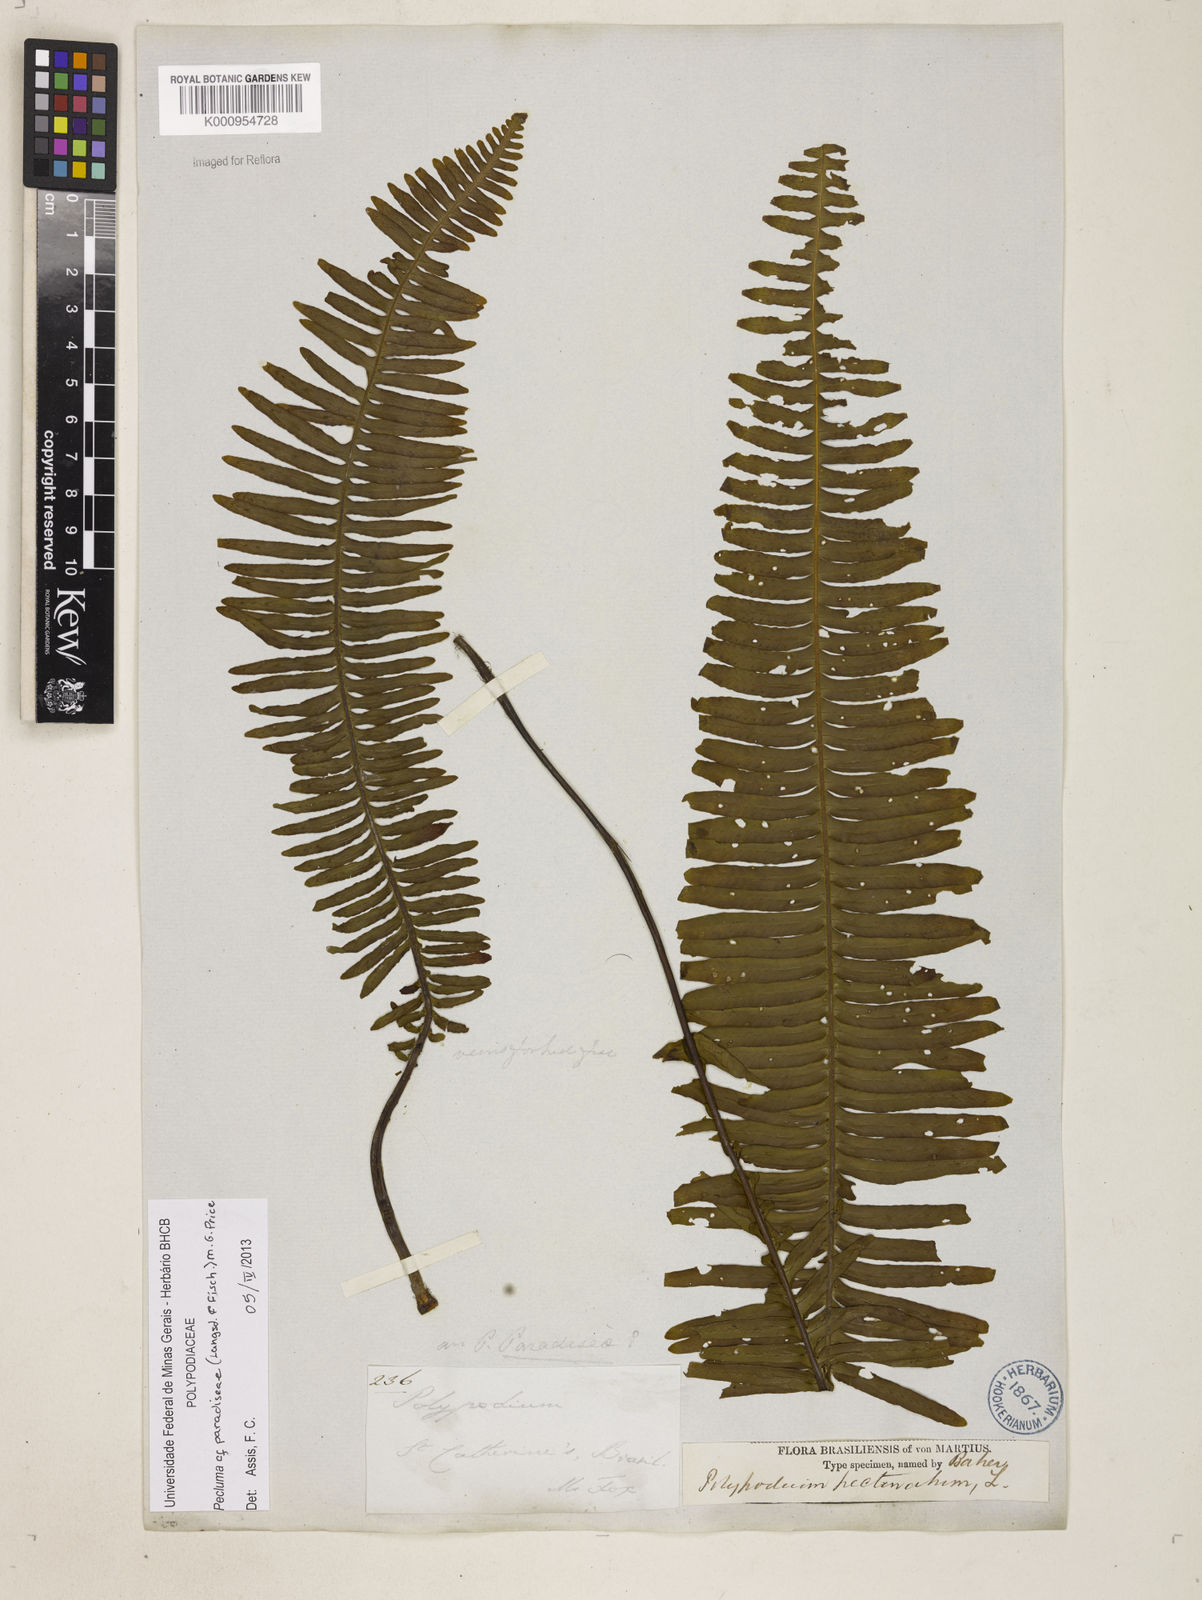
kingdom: Plantae
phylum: Tracheophyta
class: Polypodiopsida
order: Polypodiales
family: Polypodiaceae
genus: Pecluma
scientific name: Pecluma paradiseae
